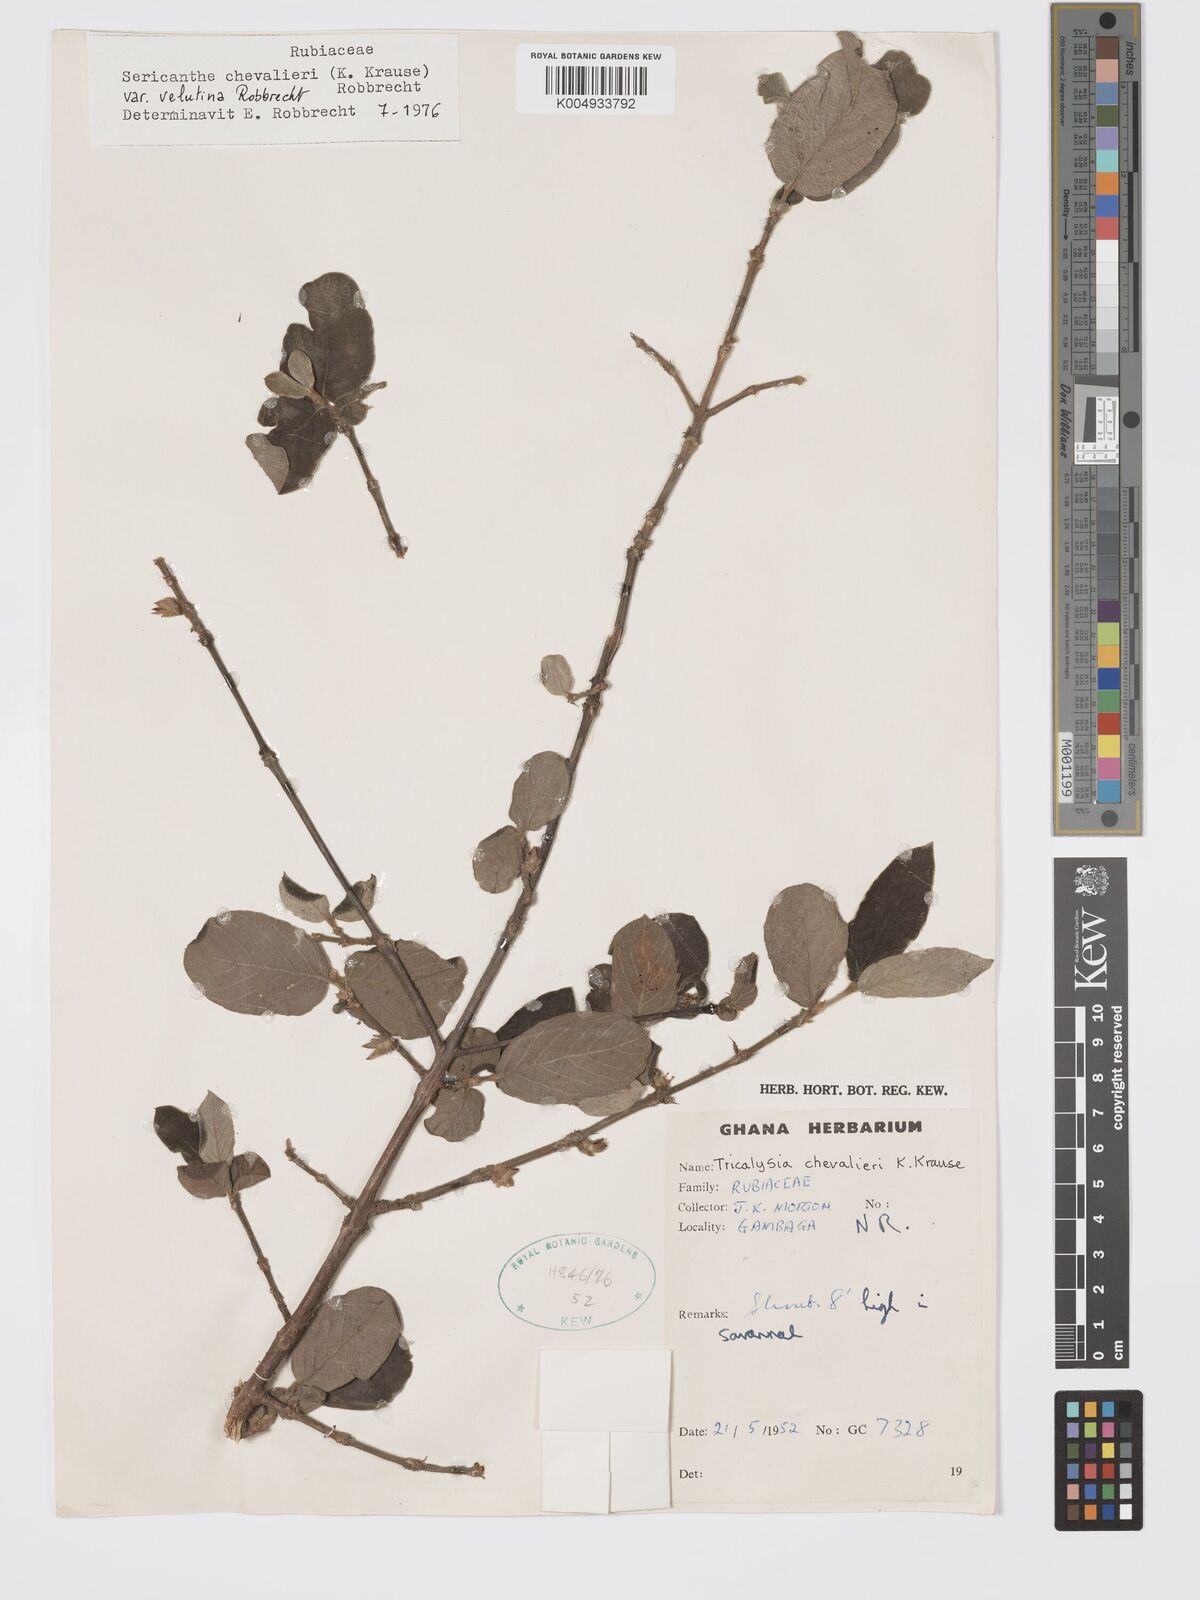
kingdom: Plantae
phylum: Tracheophyta
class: Magnoliopsida
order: Gentianales
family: Rubiaceae
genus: Sericanthe
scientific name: Sericanthe chevalieri
